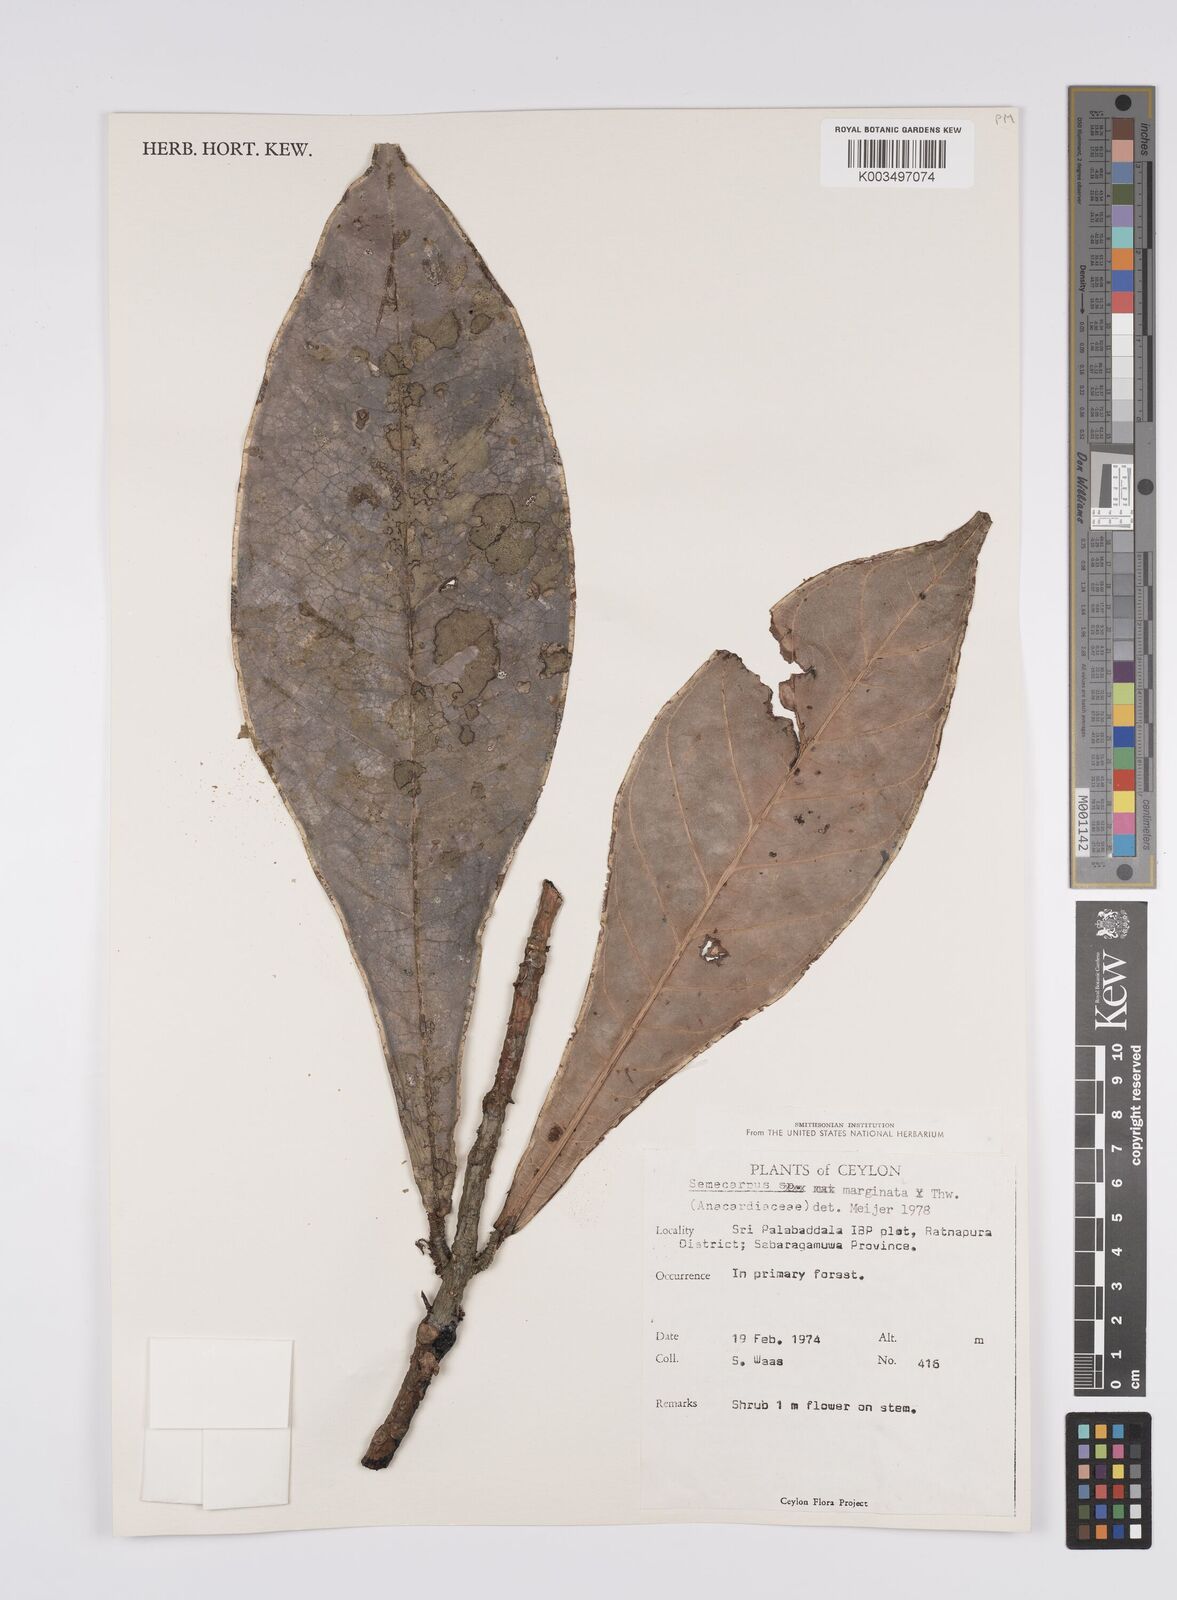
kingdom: Plantae
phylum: Tracheophyta
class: Magnoliopsida
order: Sapindales
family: Anacardiaceae
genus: Semecarpus
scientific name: Semecarpus marginatus
